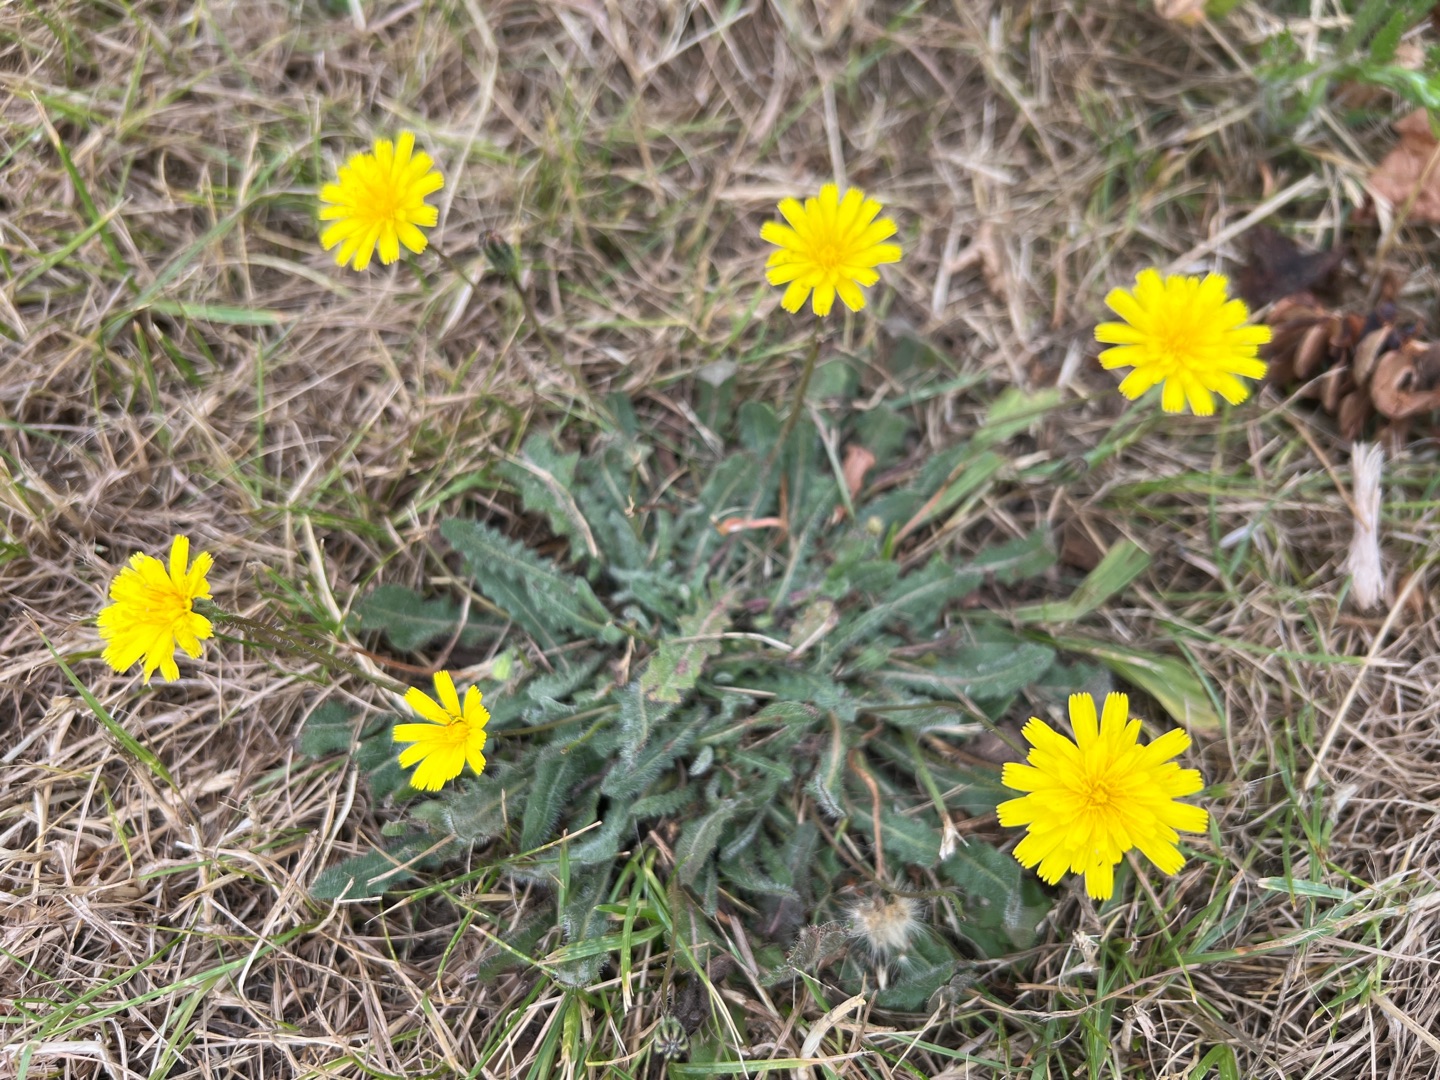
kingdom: Plantae
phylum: Tracheophyta
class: Magnoliopsida
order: Asterales
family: Asteraceae
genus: Hypochaeris
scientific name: Hypochaeris radicata
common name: Almindelig kongepen
